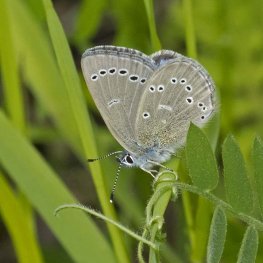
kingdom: Animalia
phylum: Arthropoda
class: Insecta
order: Lepidoptera
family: Lycaenidae
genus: Glaucopsyche
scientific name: Glaucopsyche lygdamus
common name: Silvery Blue
